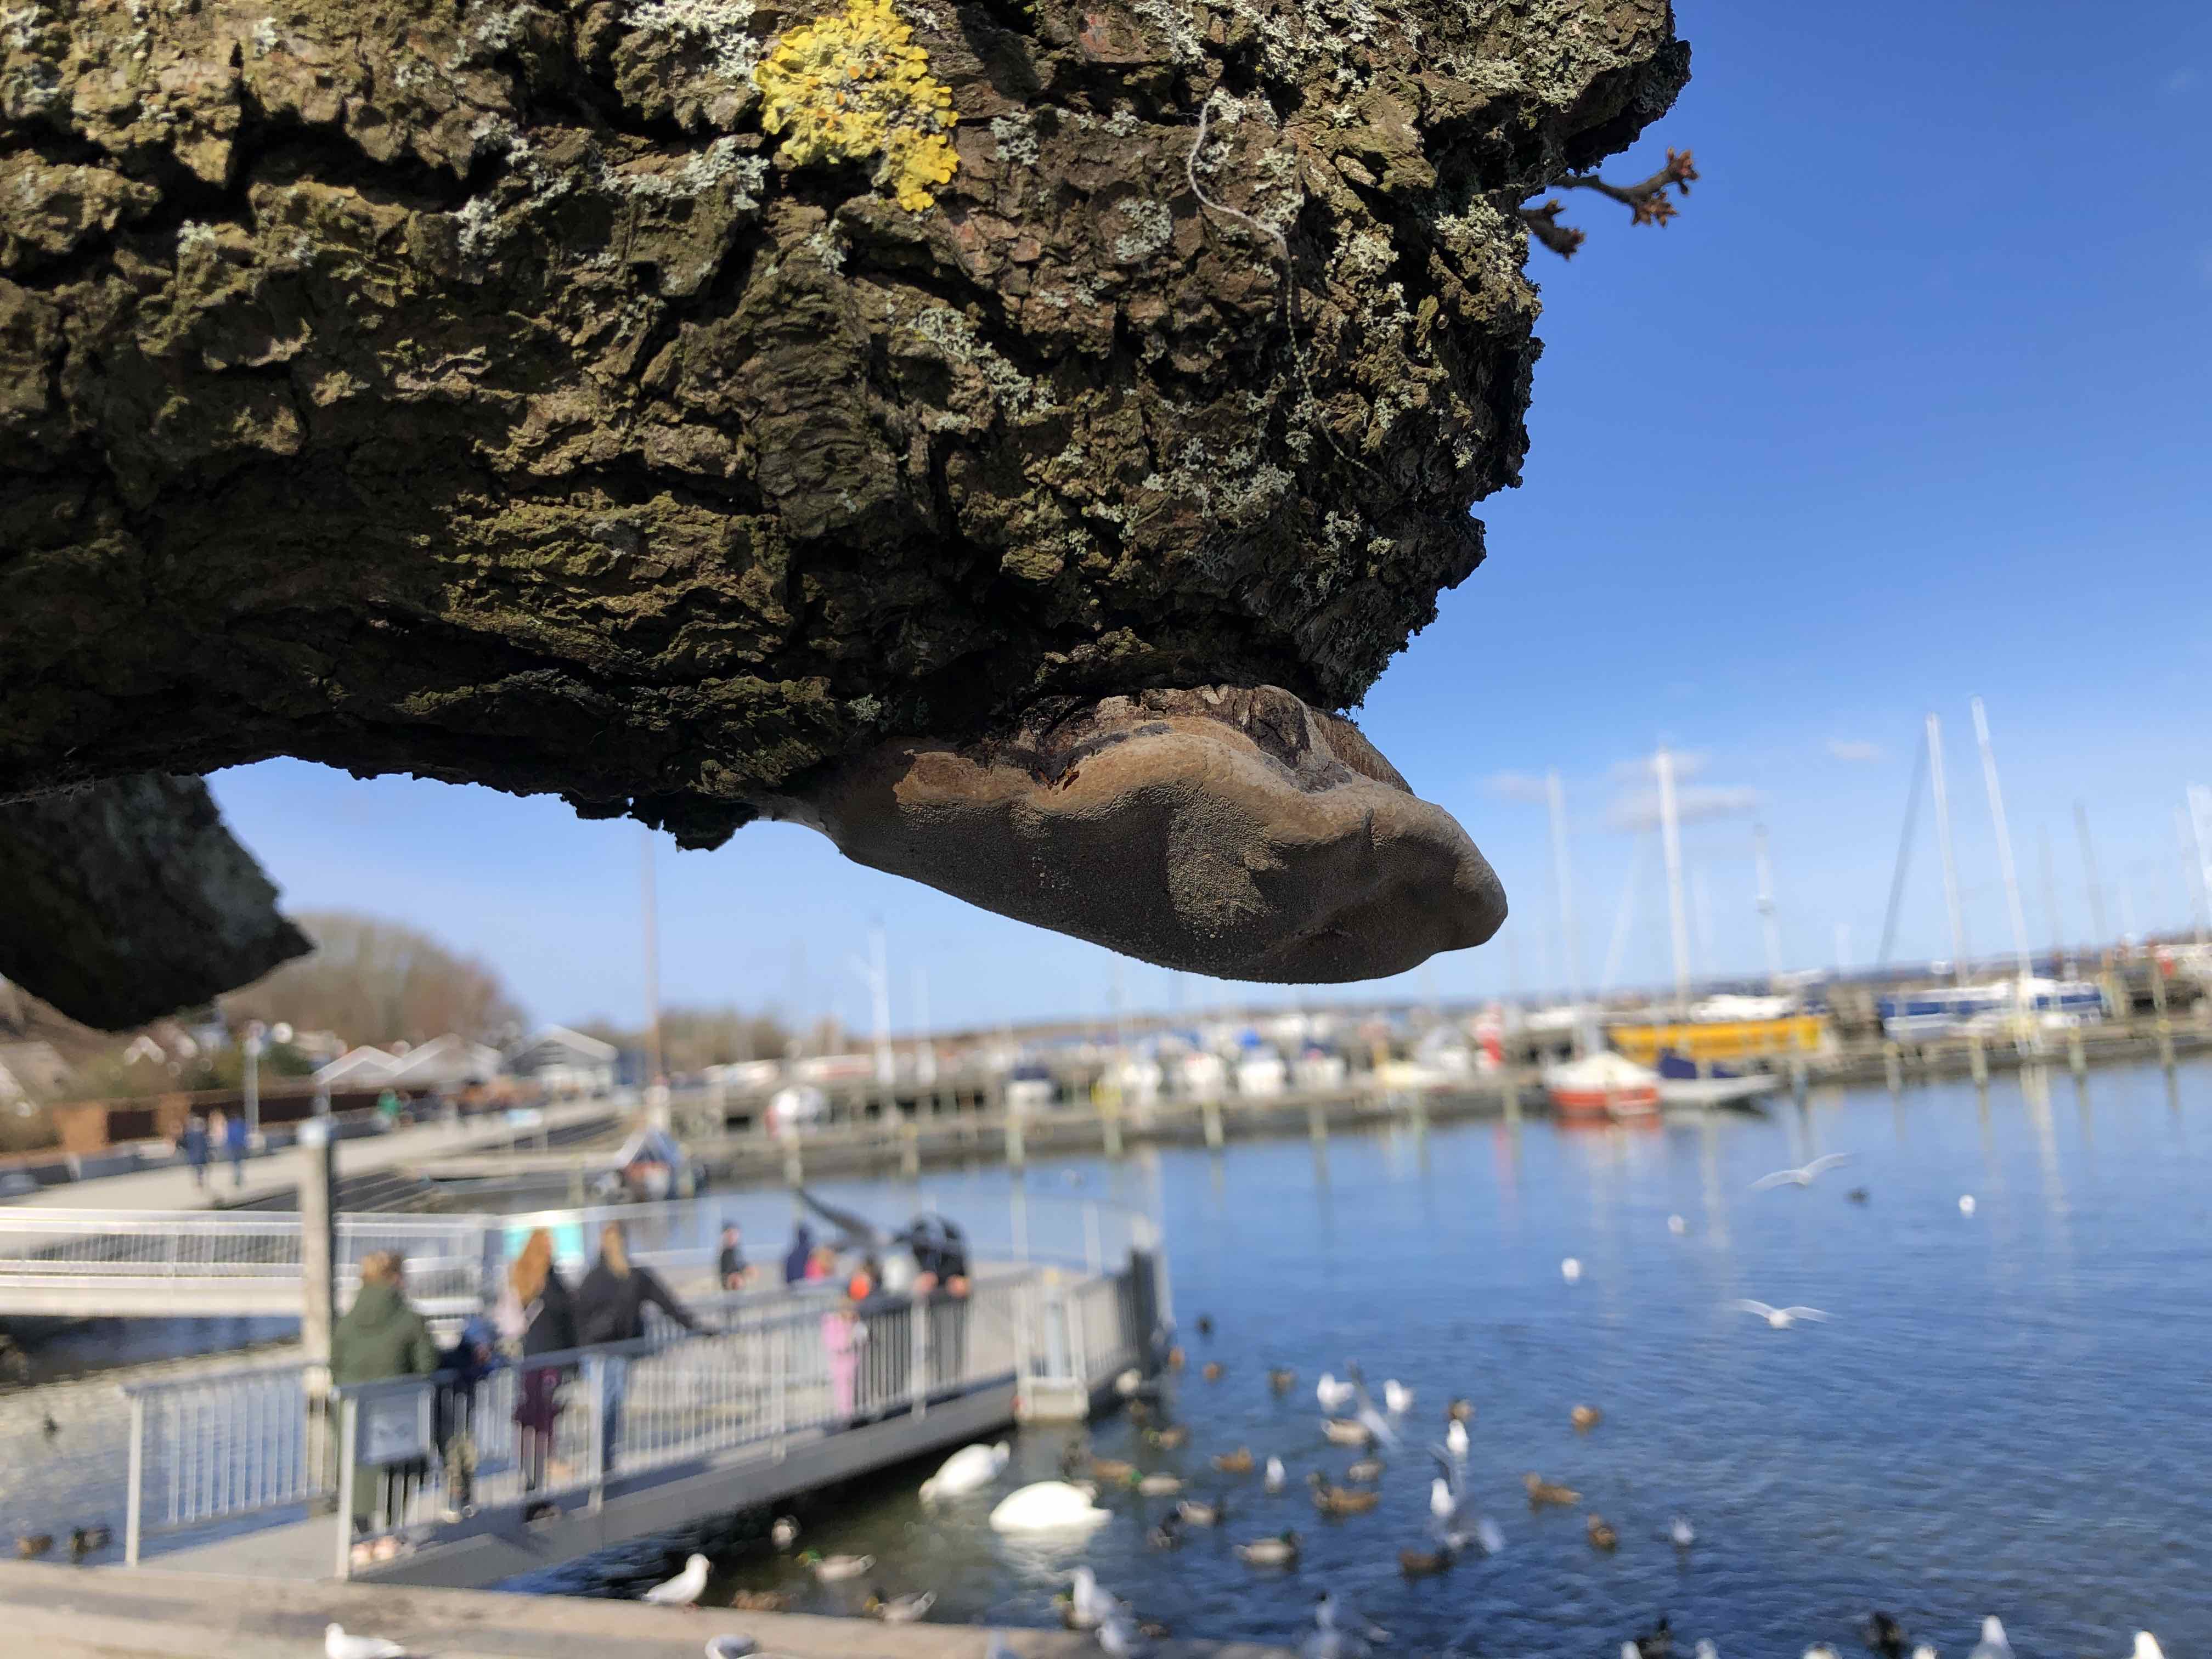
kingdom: Fungi
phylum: Basidiomycota
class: Agaricomycetes
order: Hymenochaetales
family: Hymenochaetaceae
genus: Phellinus
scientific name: Phellinus pomaceus
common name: blomme-ildporesvamp
